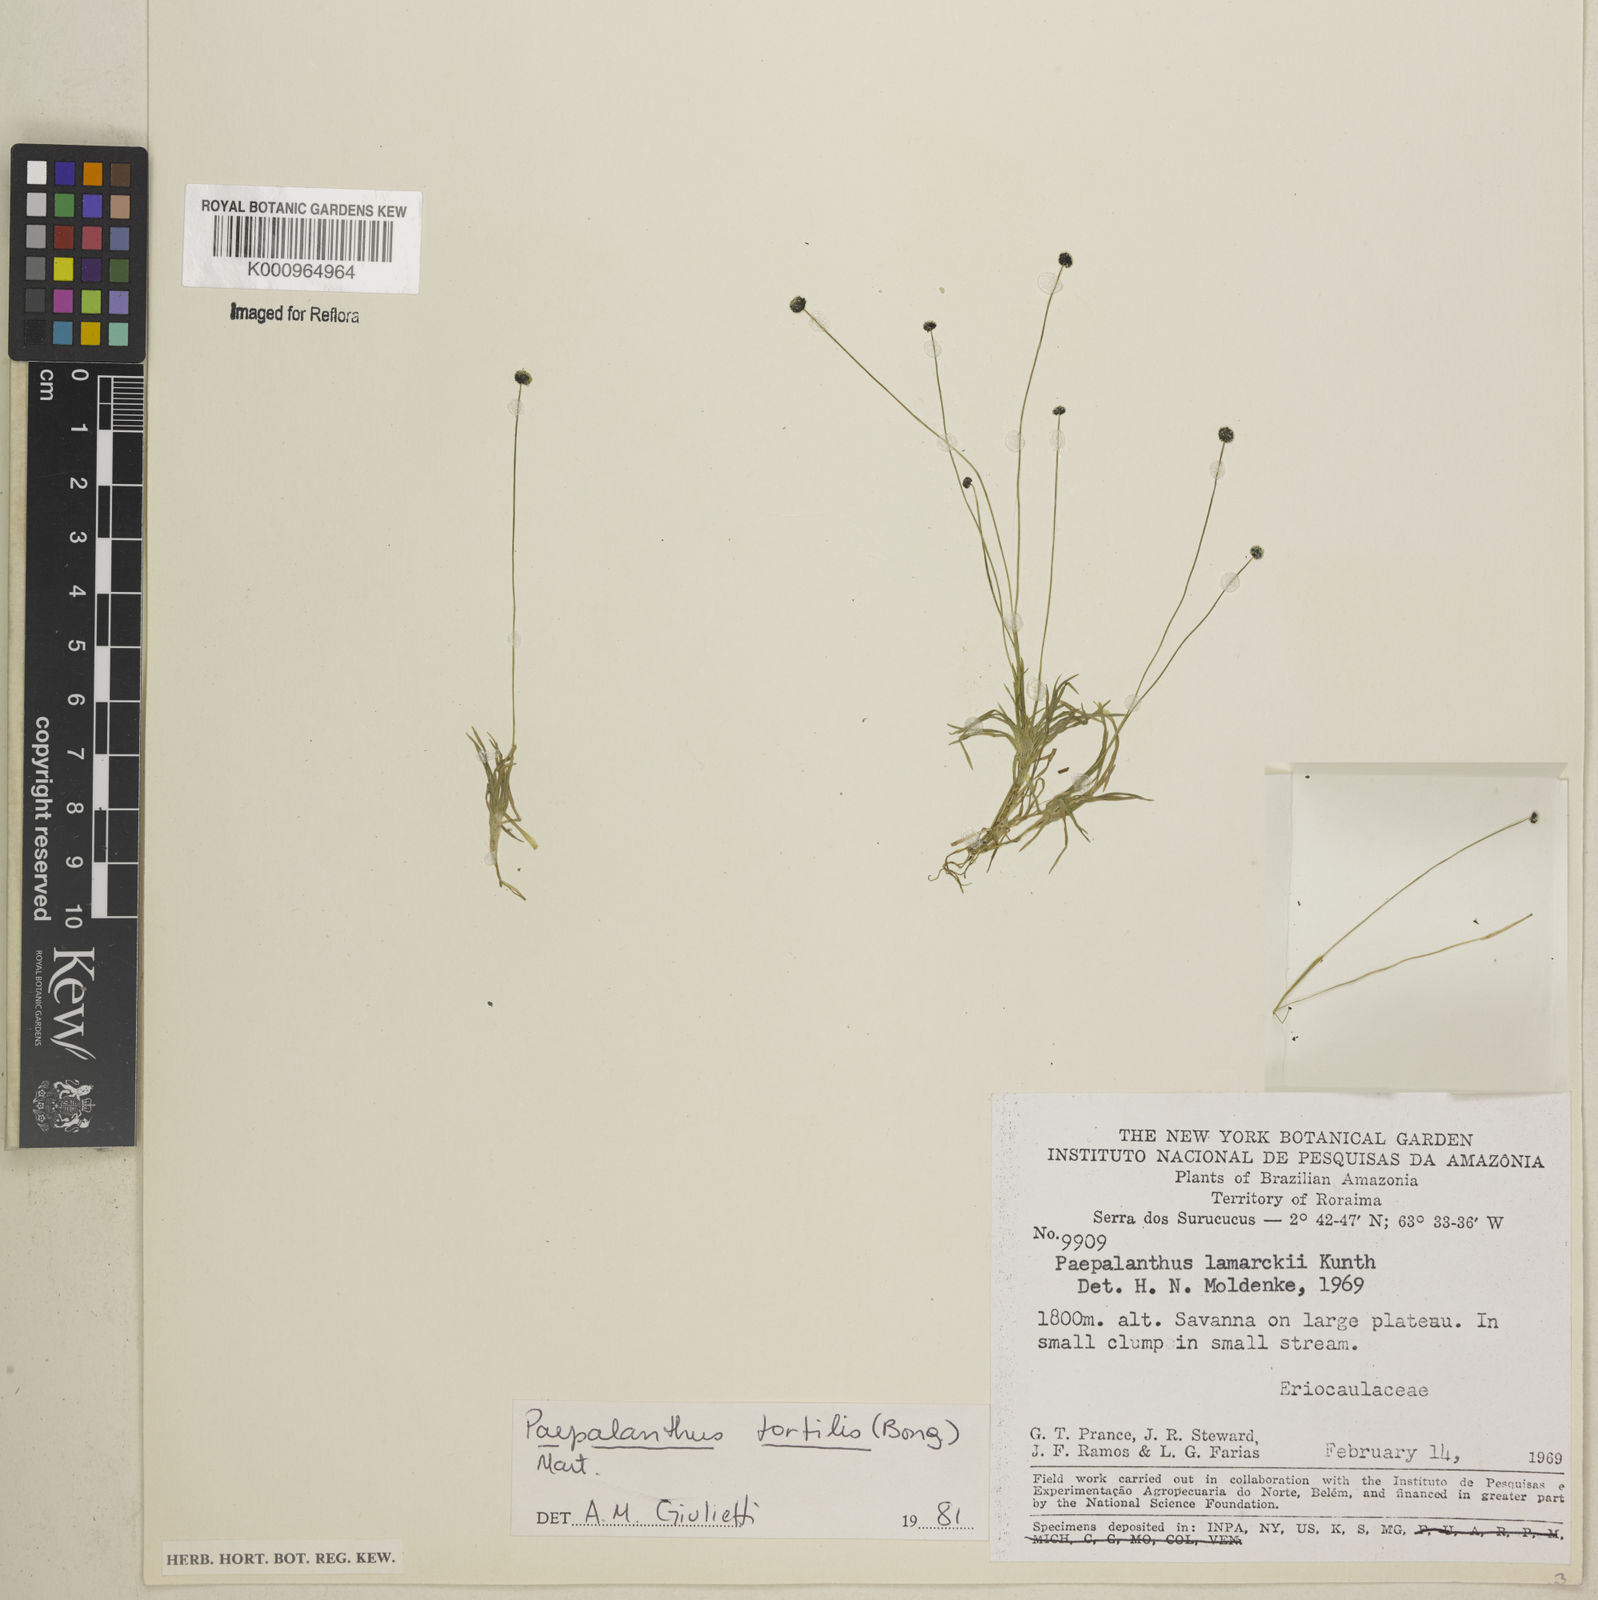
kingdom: Plantae
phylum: Tracheophyta
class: Liliopsida
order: Poales
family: Eriocaulaceae
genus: Paepalanthus
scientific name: Paepalanthus
